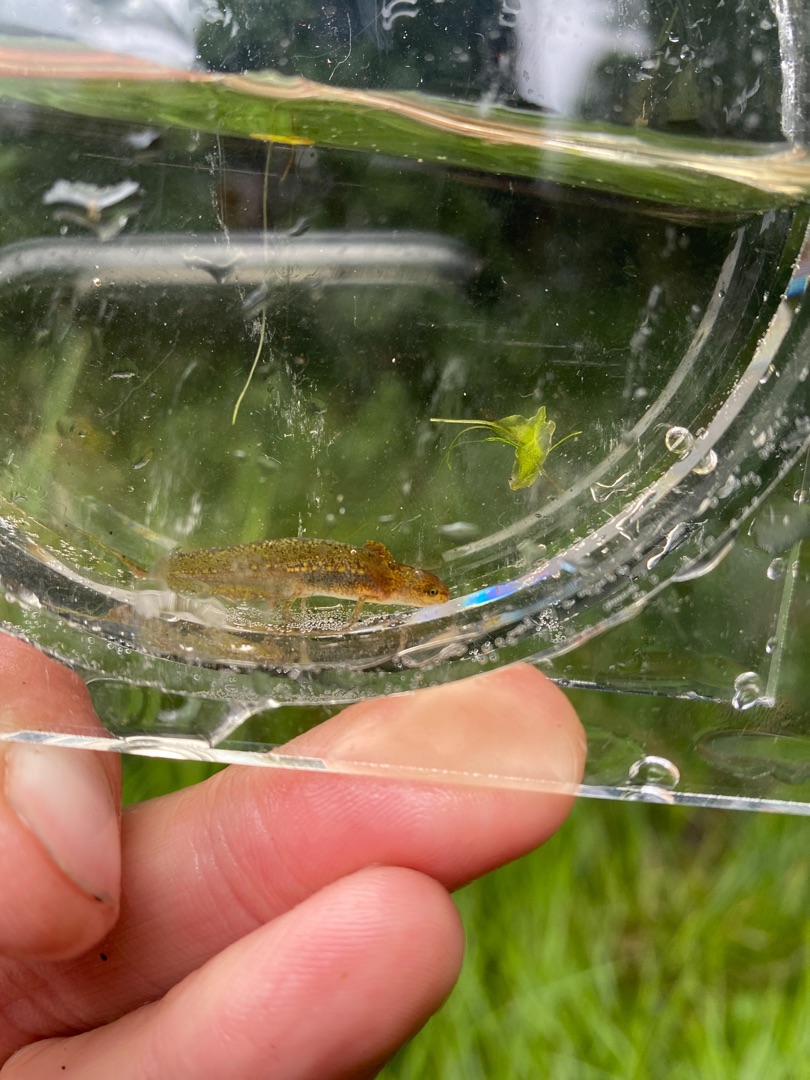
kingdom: Animalia
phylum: Chordata
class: Amphibia
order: Caudata
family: Salamandridae
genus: Lissotriton
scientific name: Lissotriton vulgaris
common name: Lille vandsalamander
